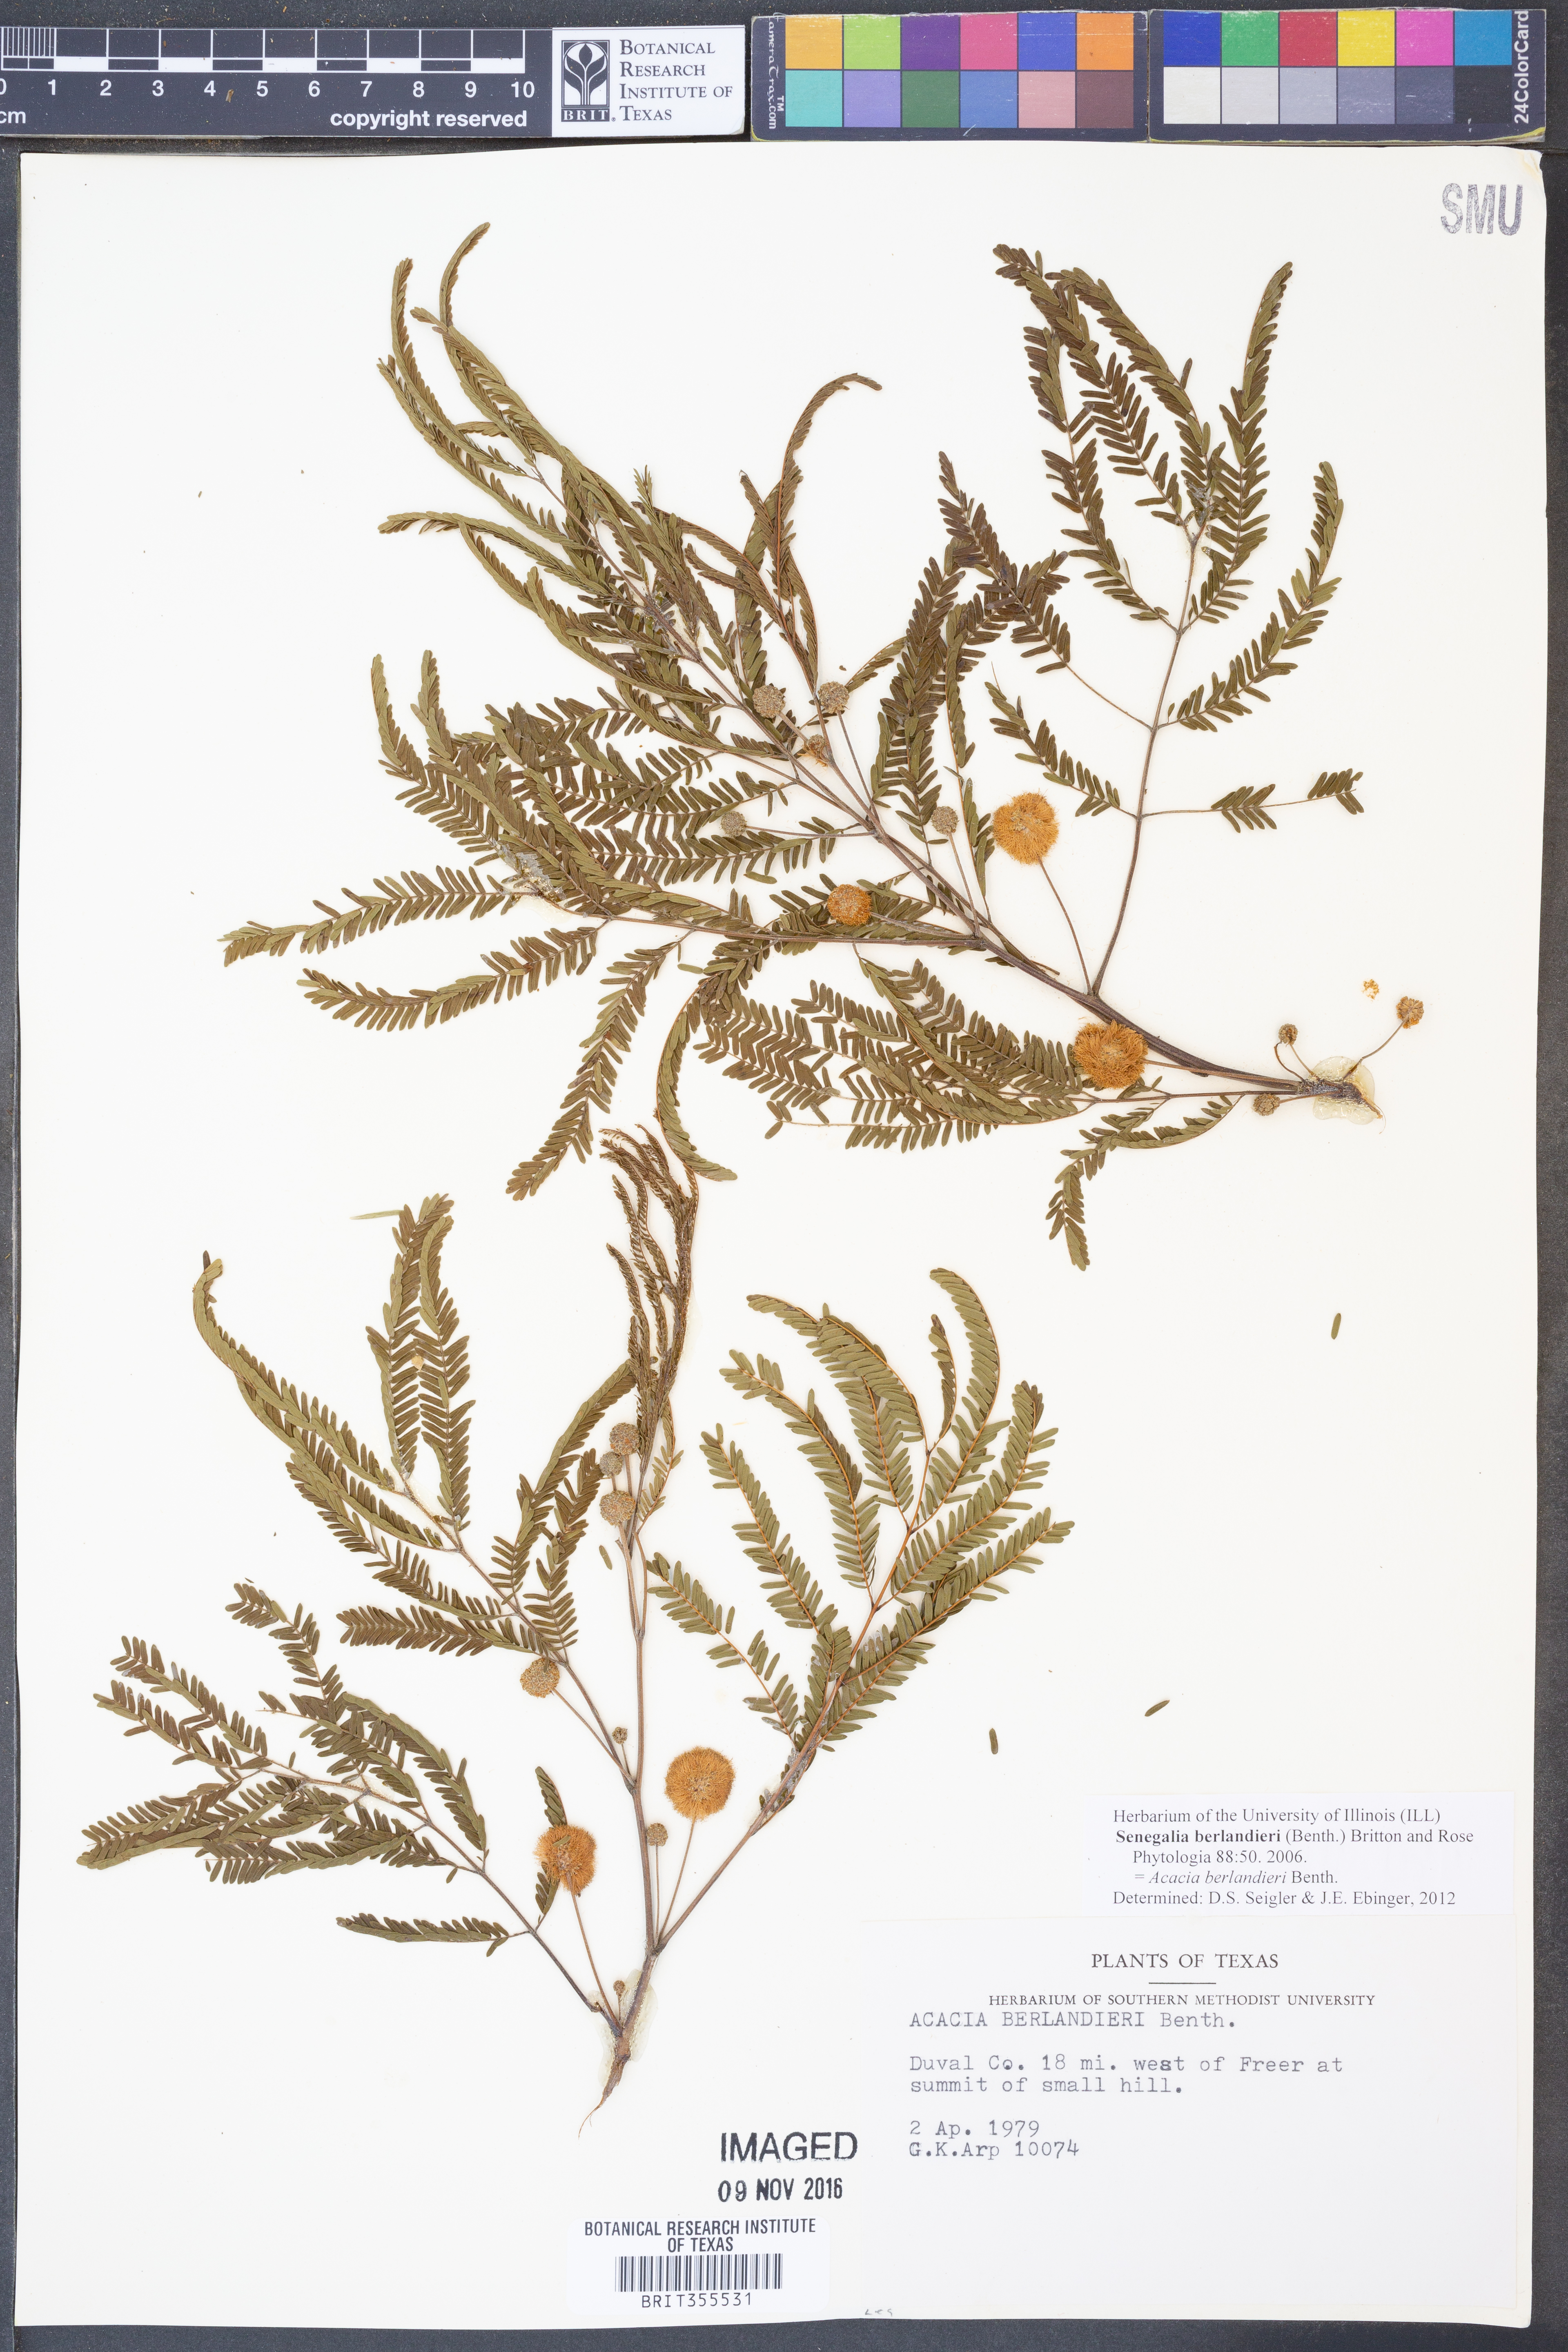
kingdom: Plantae
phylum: Tracheophyta
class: Magnoliopsida
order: Fabales
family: Fabaceae
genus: Senegalia
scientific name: Senegalia berlandieri
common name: Berlandier acacia
